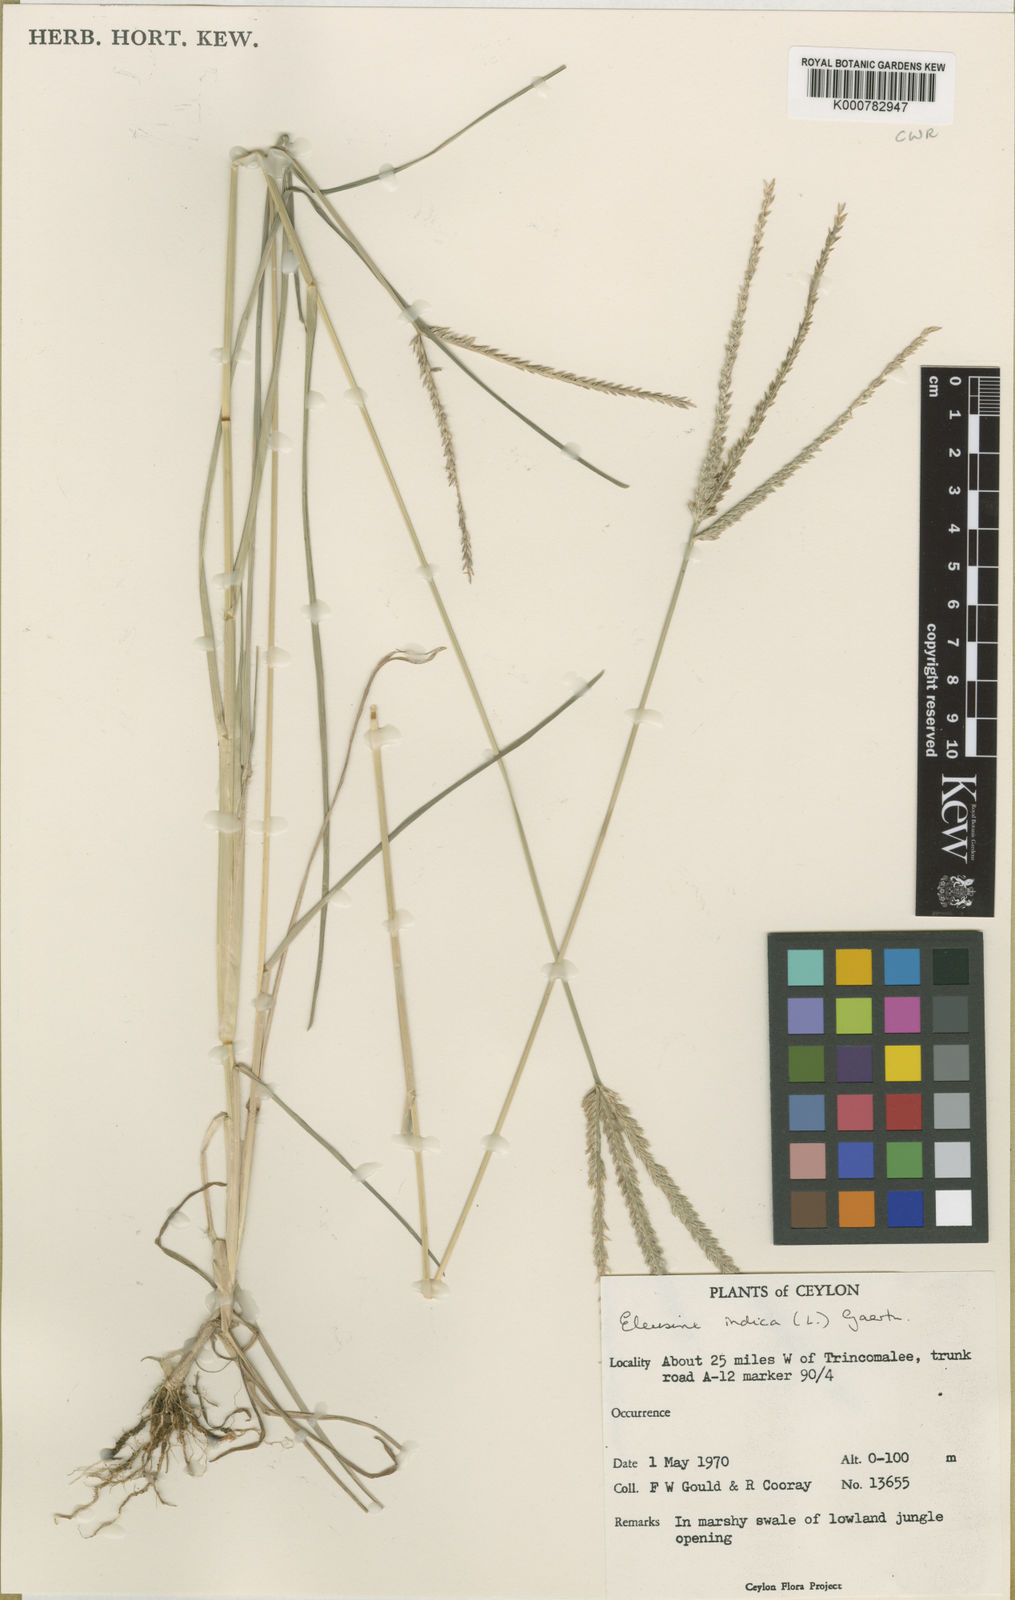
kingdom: Plantae
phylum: Tracheophyta
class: Liliopsida
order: Poales
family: Poaceae
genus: Eleusine
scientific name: Eleusine indica
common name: Yard-grass
